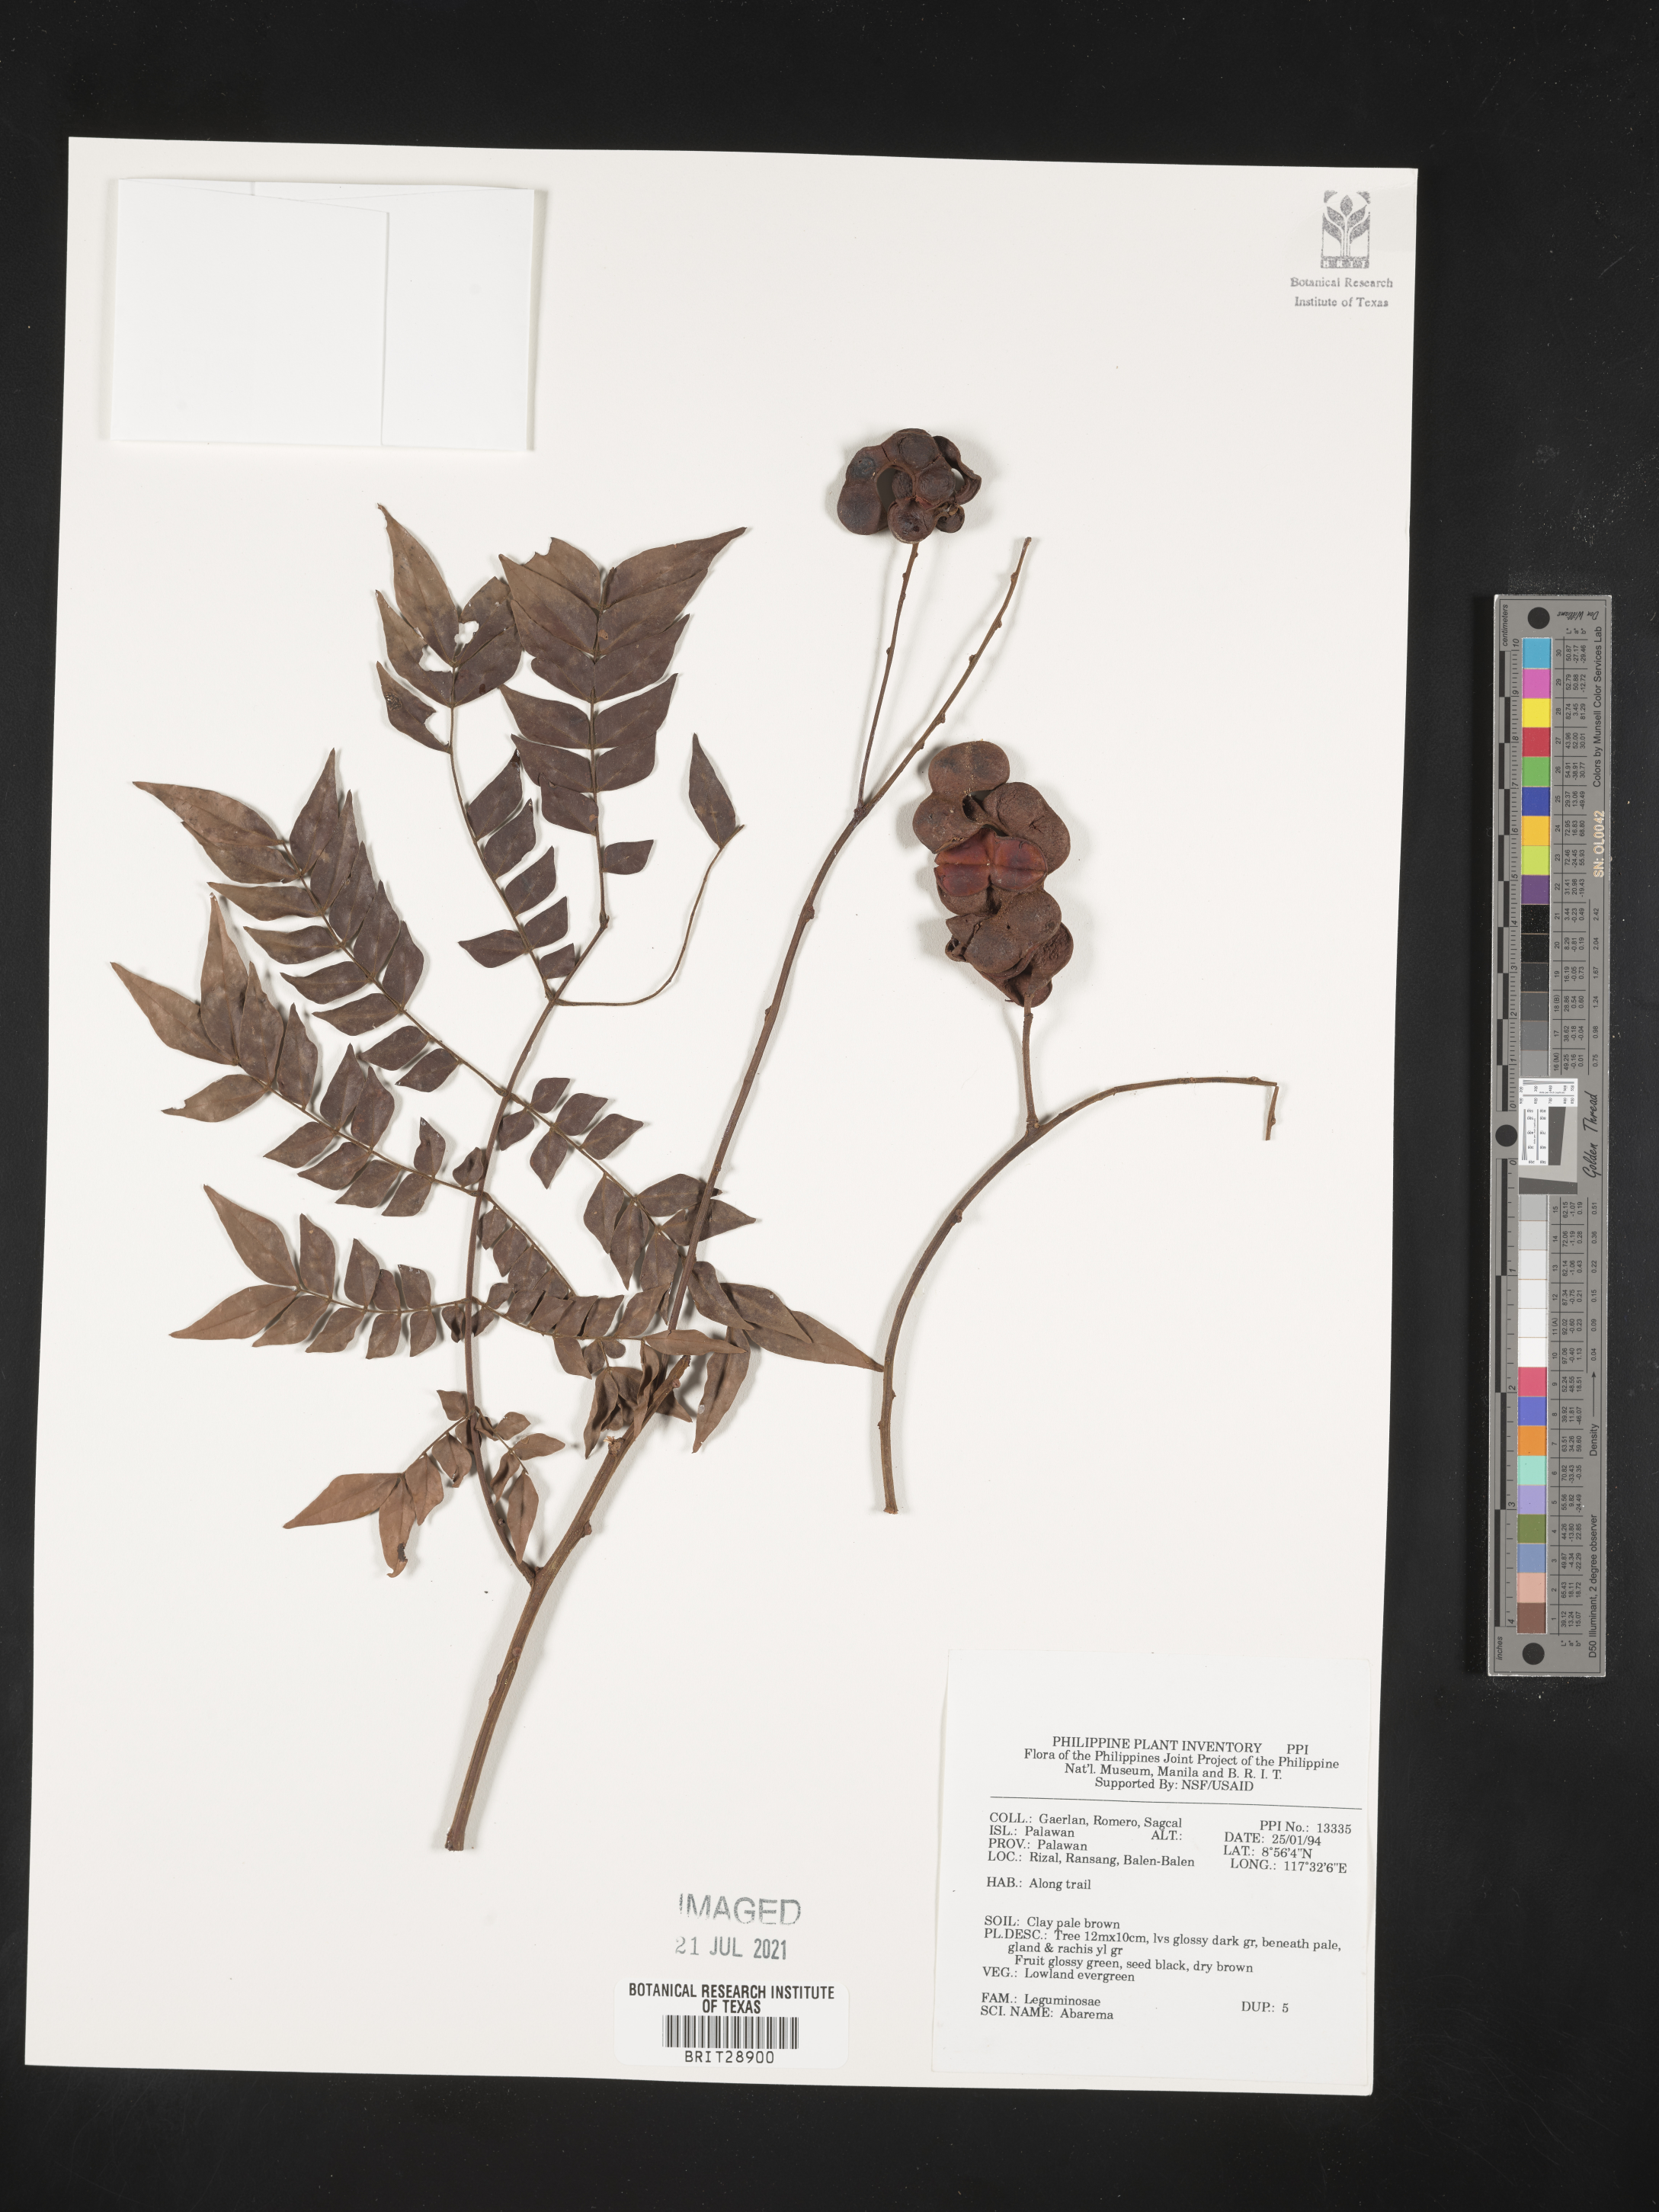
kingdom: Plantae
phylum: Tracheophyta
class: Magnoliopsida
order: Fabales
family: Fabaceae
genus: Abarema
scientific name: Abarema
